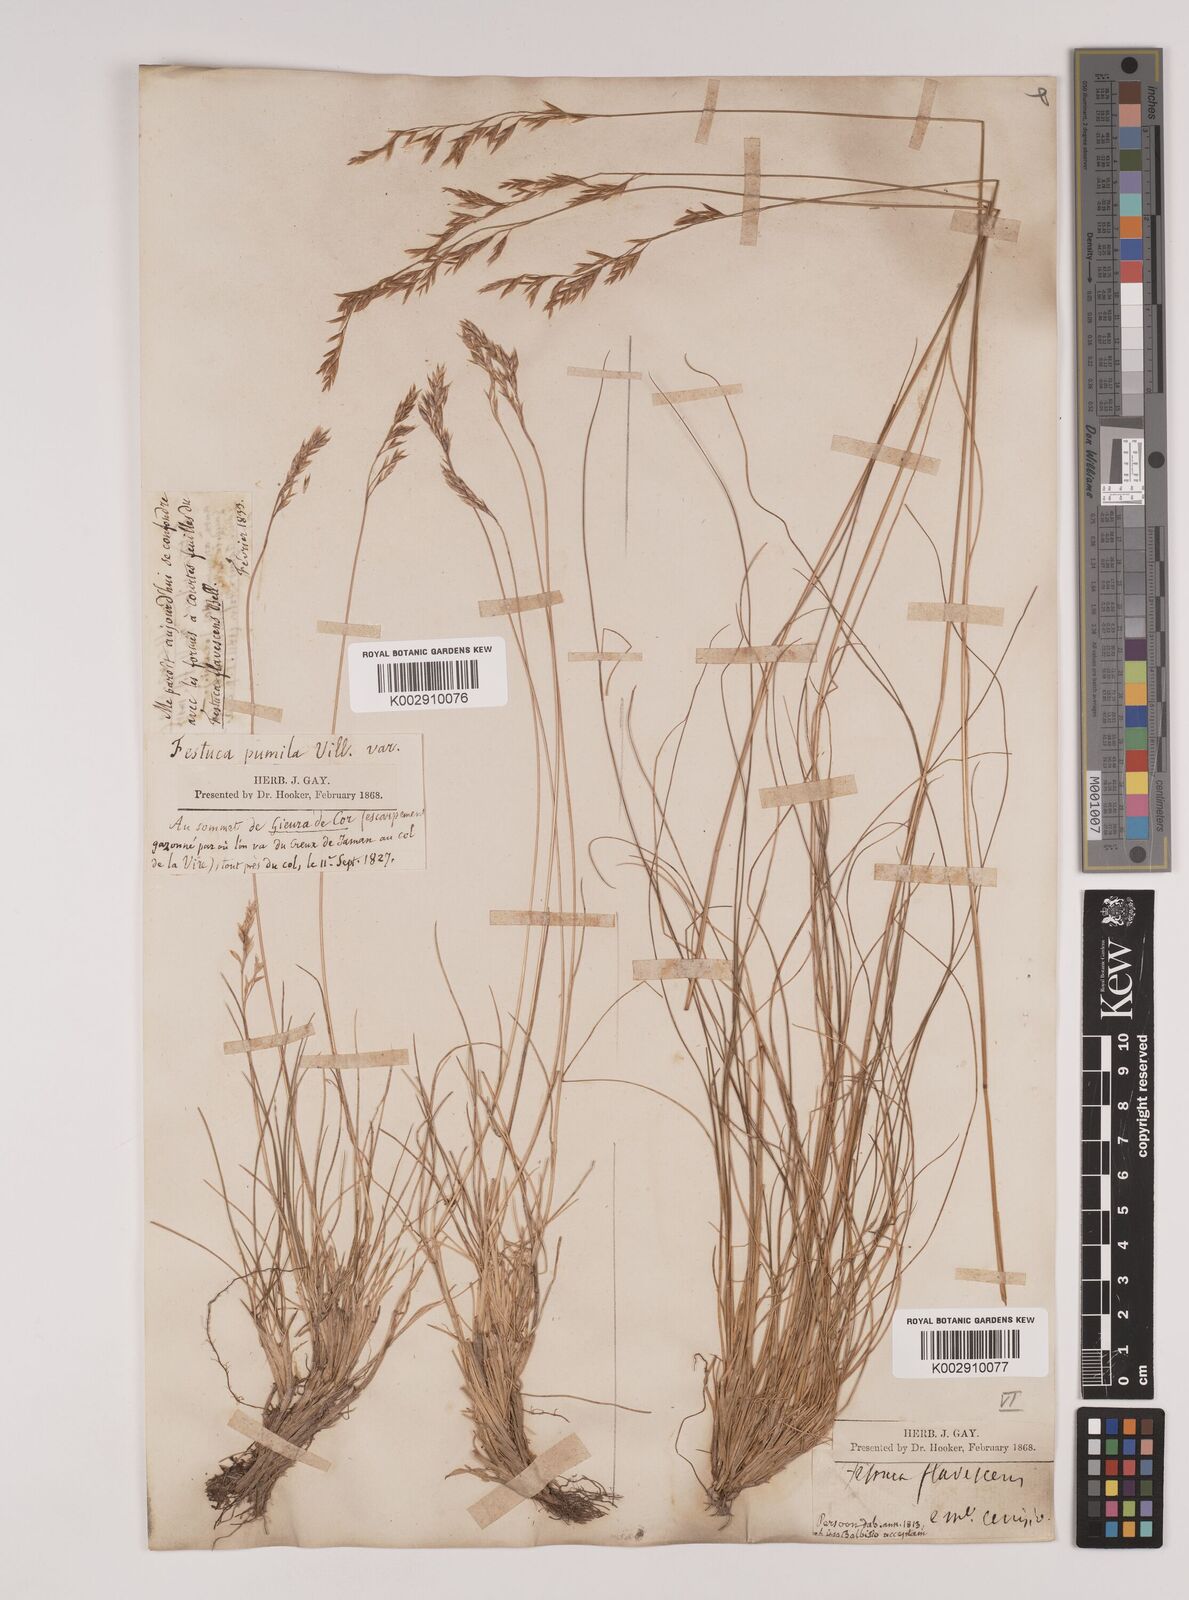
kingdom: Plantae
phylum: Tracheophyta
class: Liliopsida
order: Poales
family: Poaceae
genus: Festuca
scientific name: Festuca flavescens
